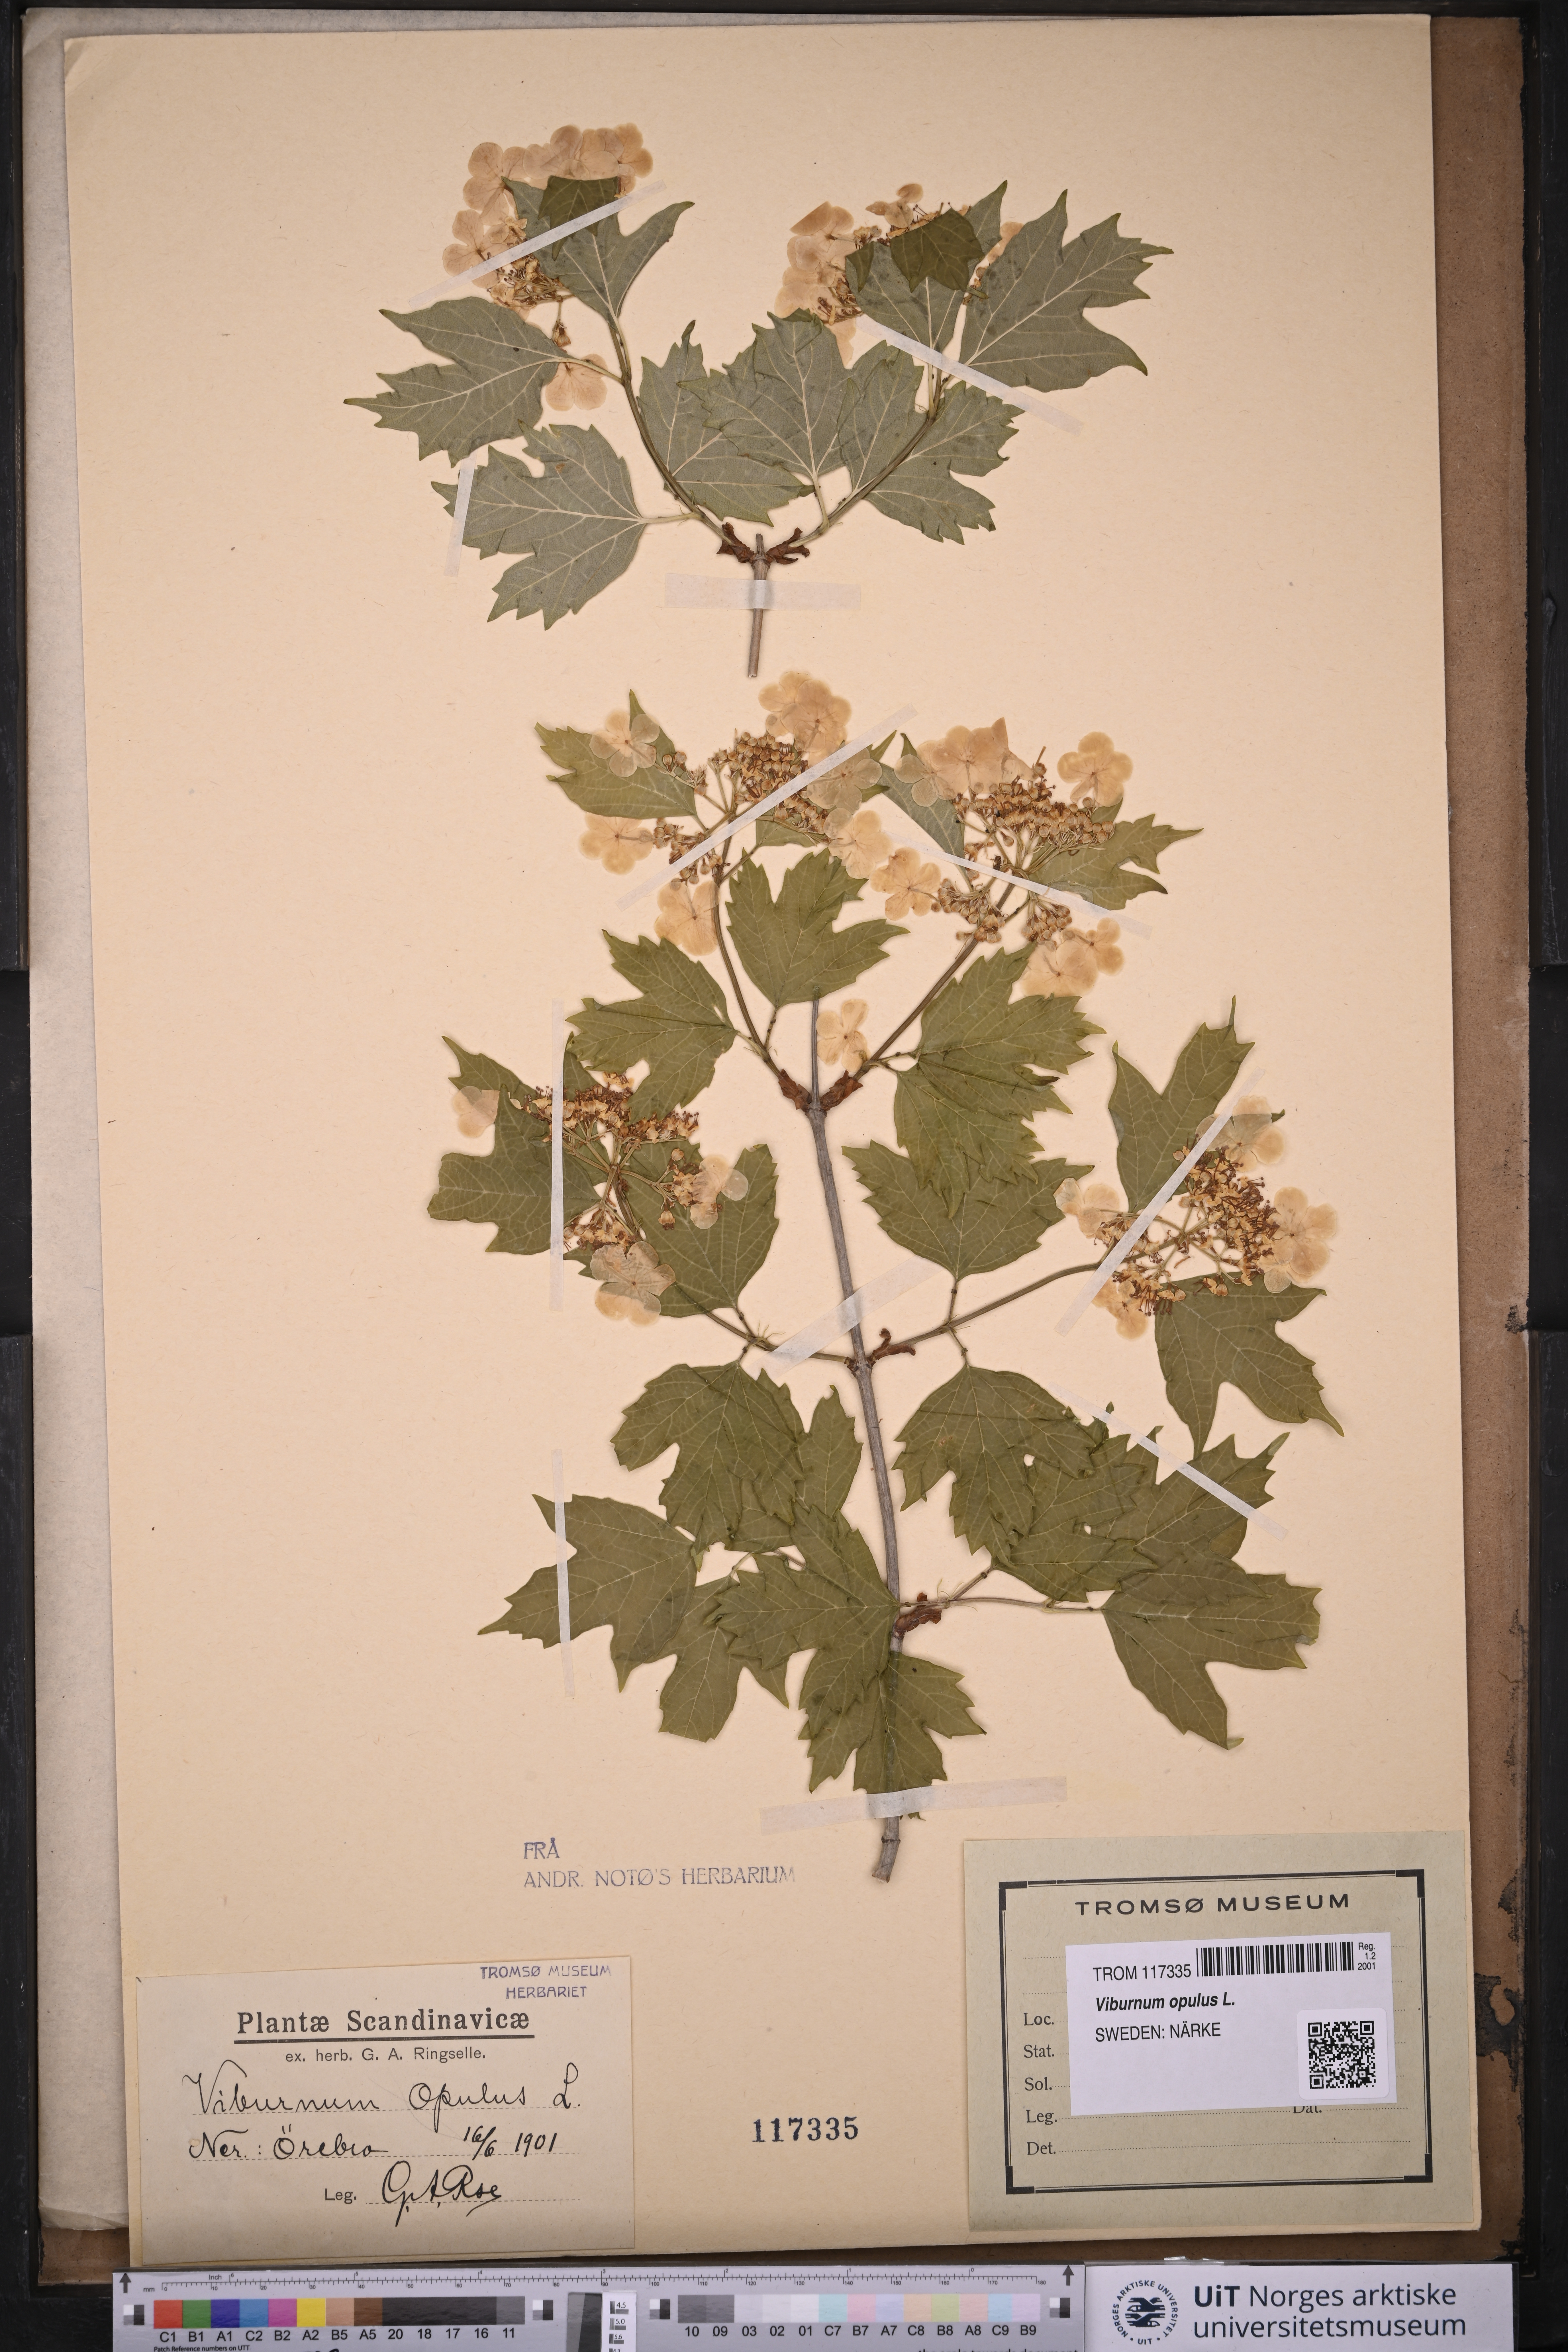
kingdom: Plantae
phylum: Tracheophyta
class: Magnoliopsida
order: Dipsacales
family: Viburnaceae
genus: Viburnum
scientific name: Viburnum opulus
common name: Guelder-rose
